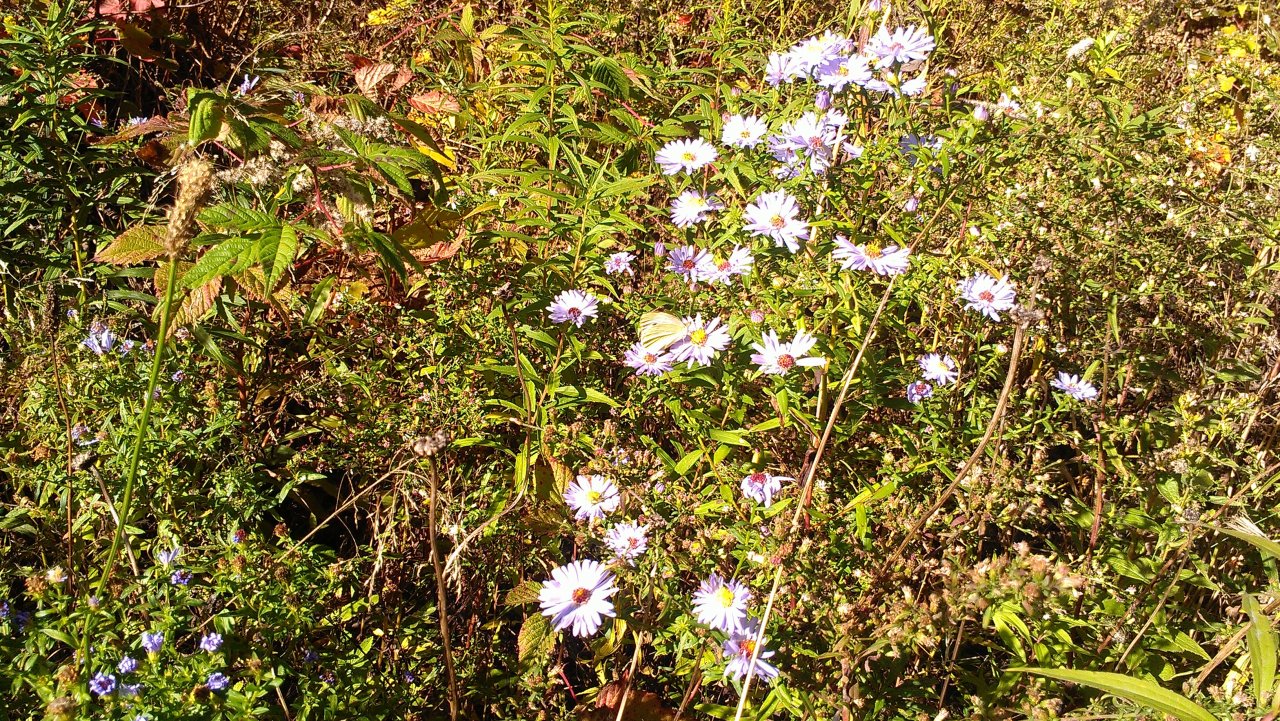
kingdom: Animalia
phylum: Arthropoda
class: Insecta
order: Lepidoptera
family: Pieridae
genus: Pieris
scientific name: Pieris rapae
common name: Cabbage White
